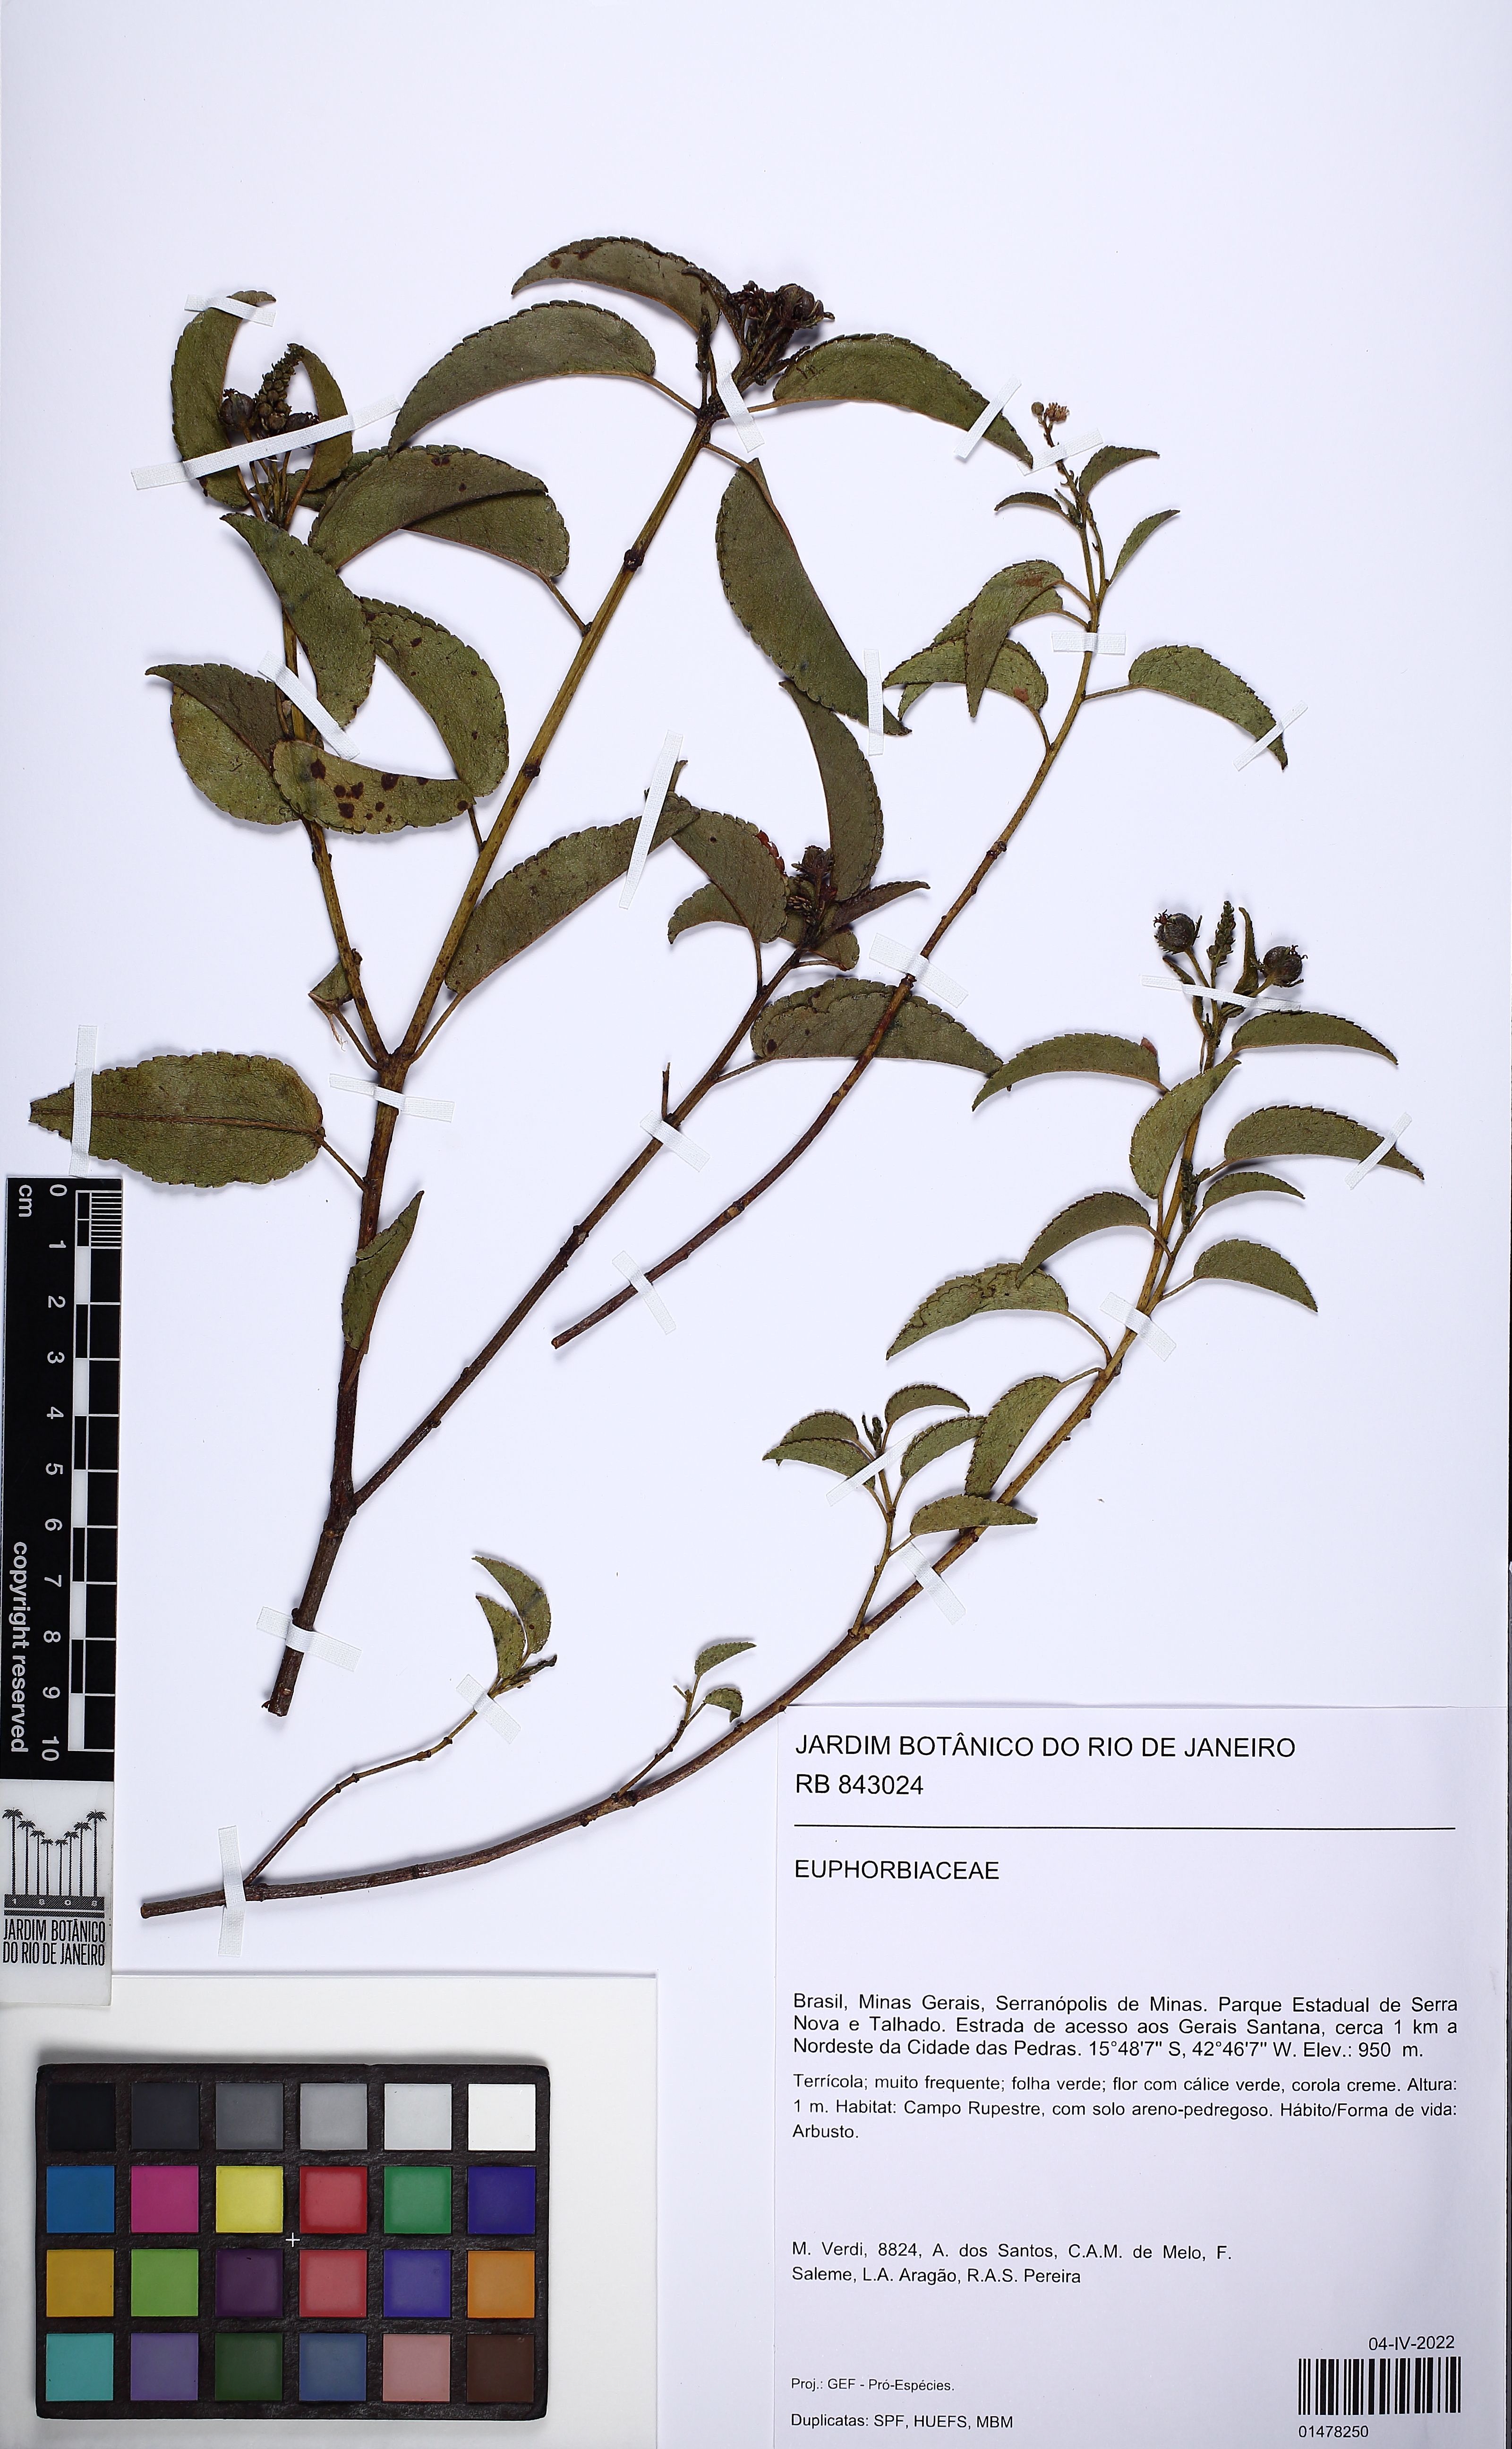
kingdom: Plantae
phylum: Tracheophyta
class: Magnoliopsida
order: Malpighiales
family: Euphorbiaceae
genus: Croton
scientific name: Croton glutinosus
